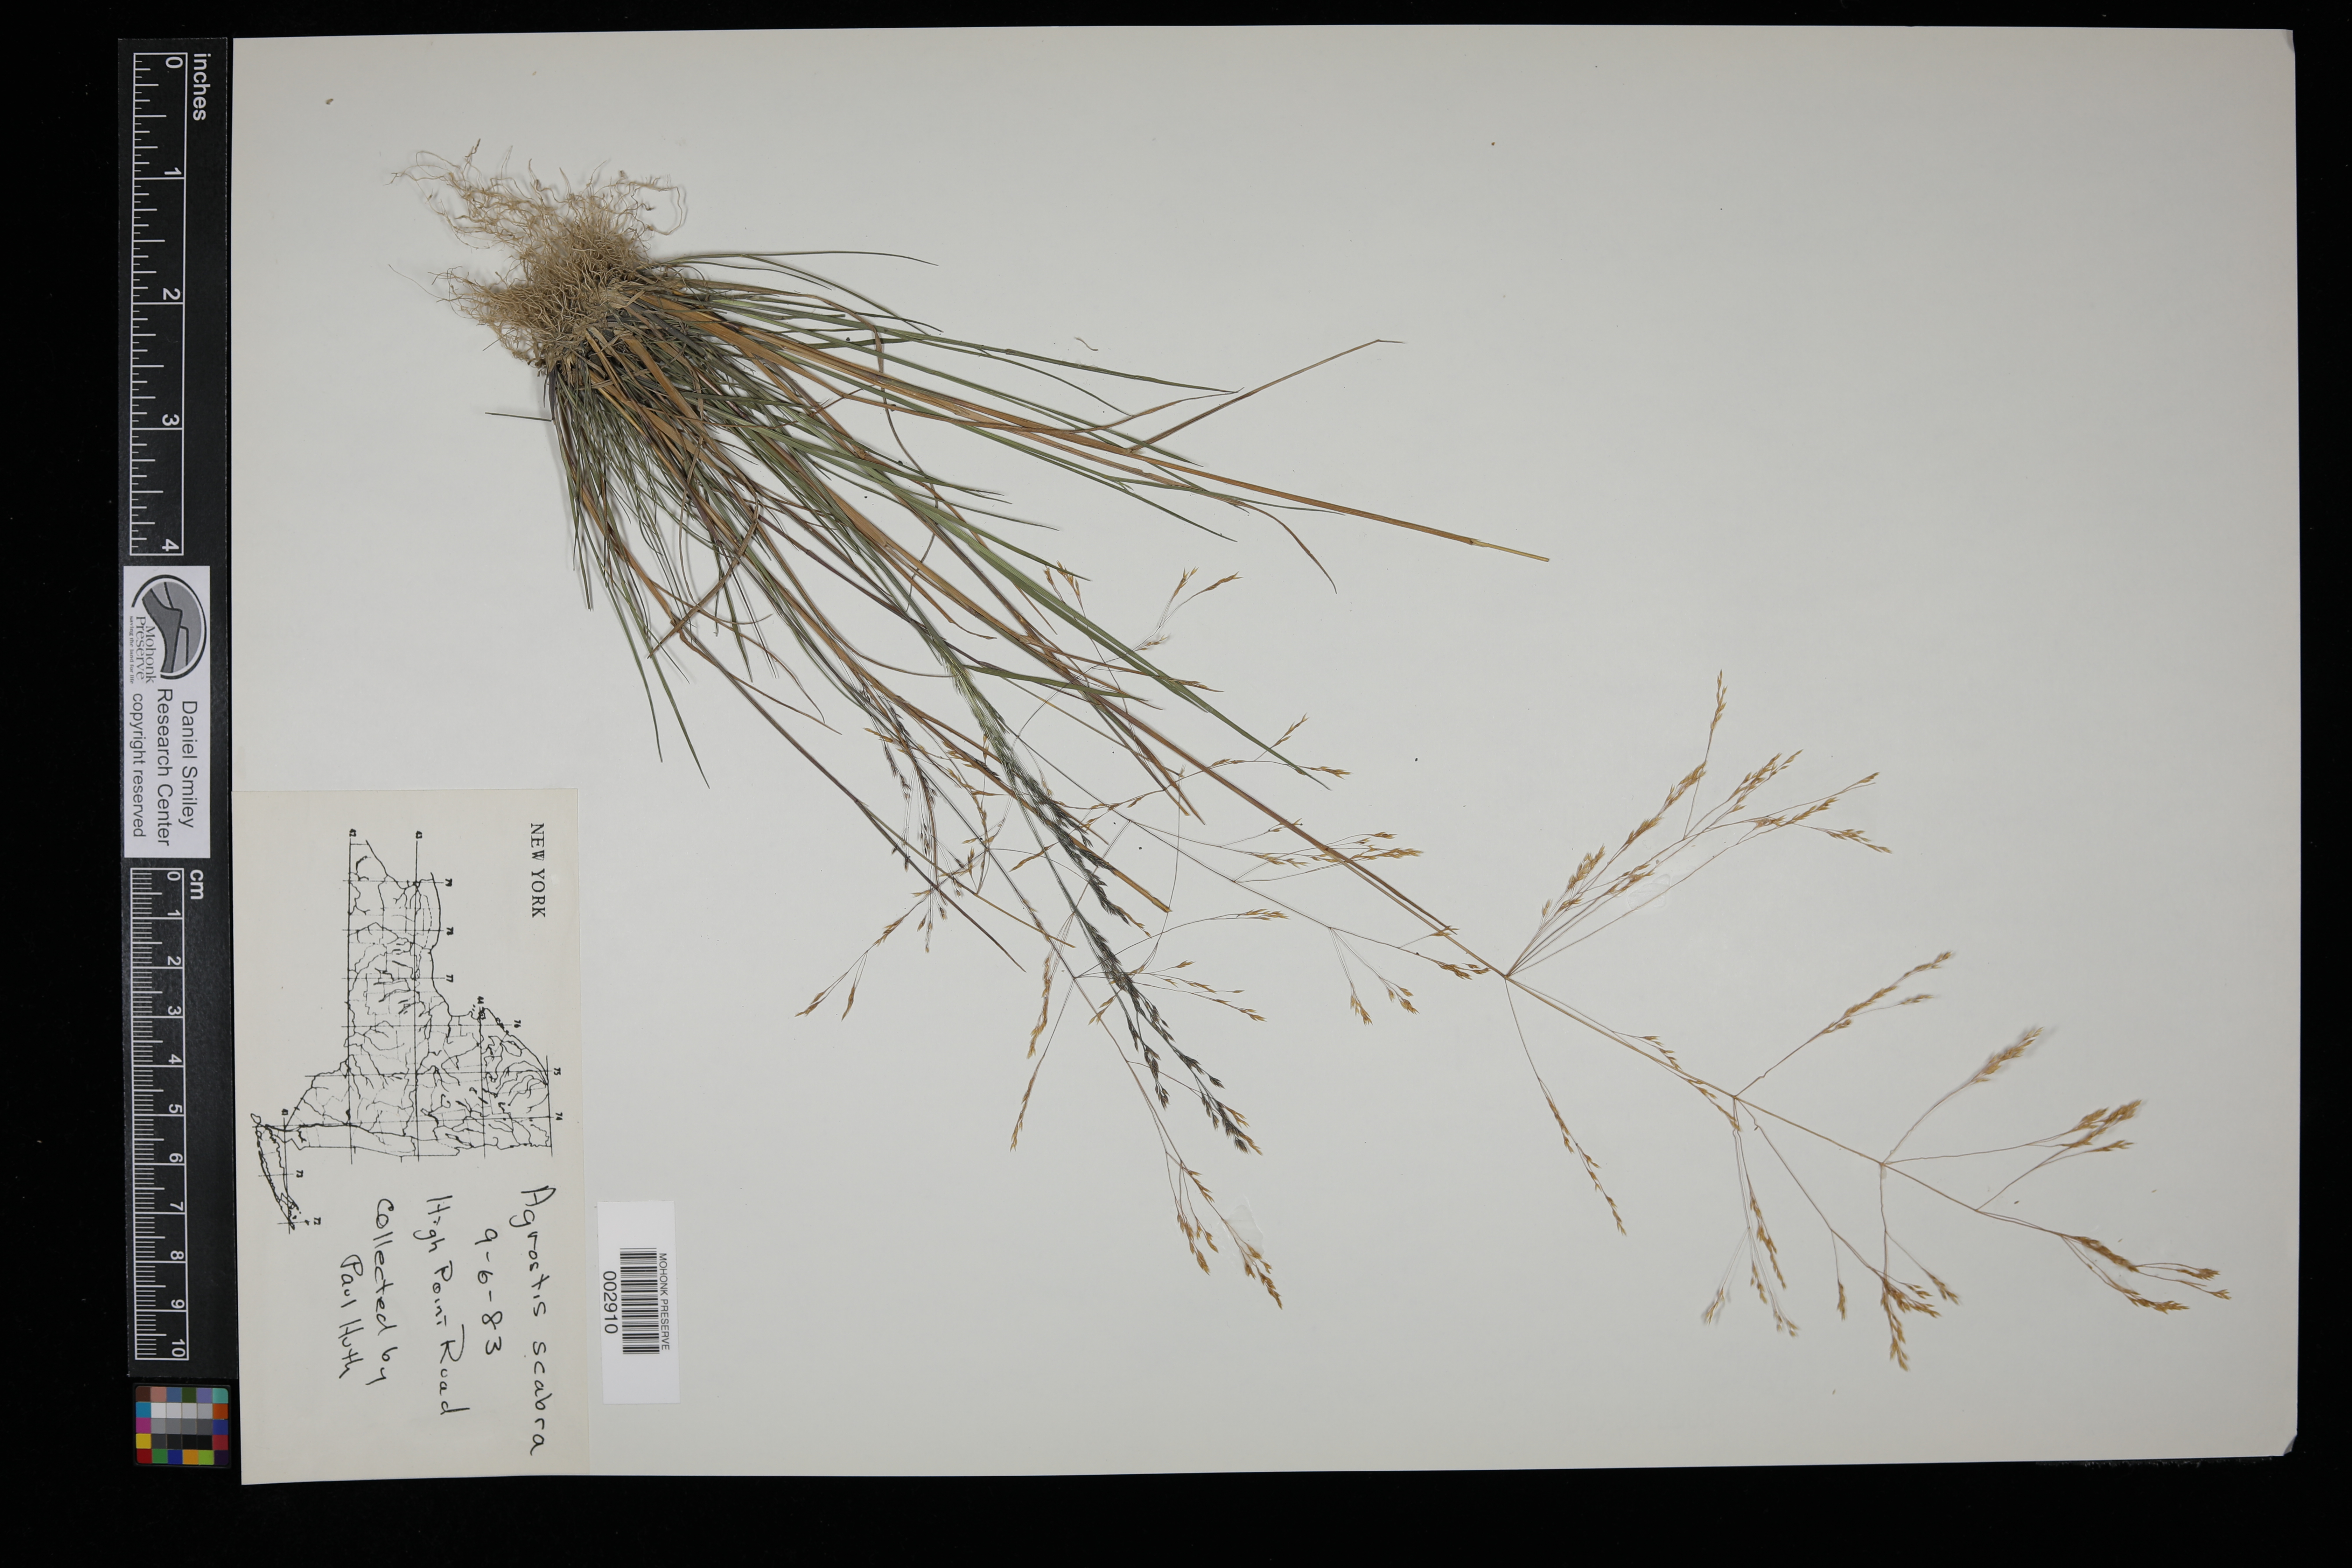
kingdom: Plantae
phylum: Tracheophyta
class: Liliopsida
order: Poales
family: Poaceae
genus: Agrostis
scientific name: Agrostis perennans
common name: Autumn bent
